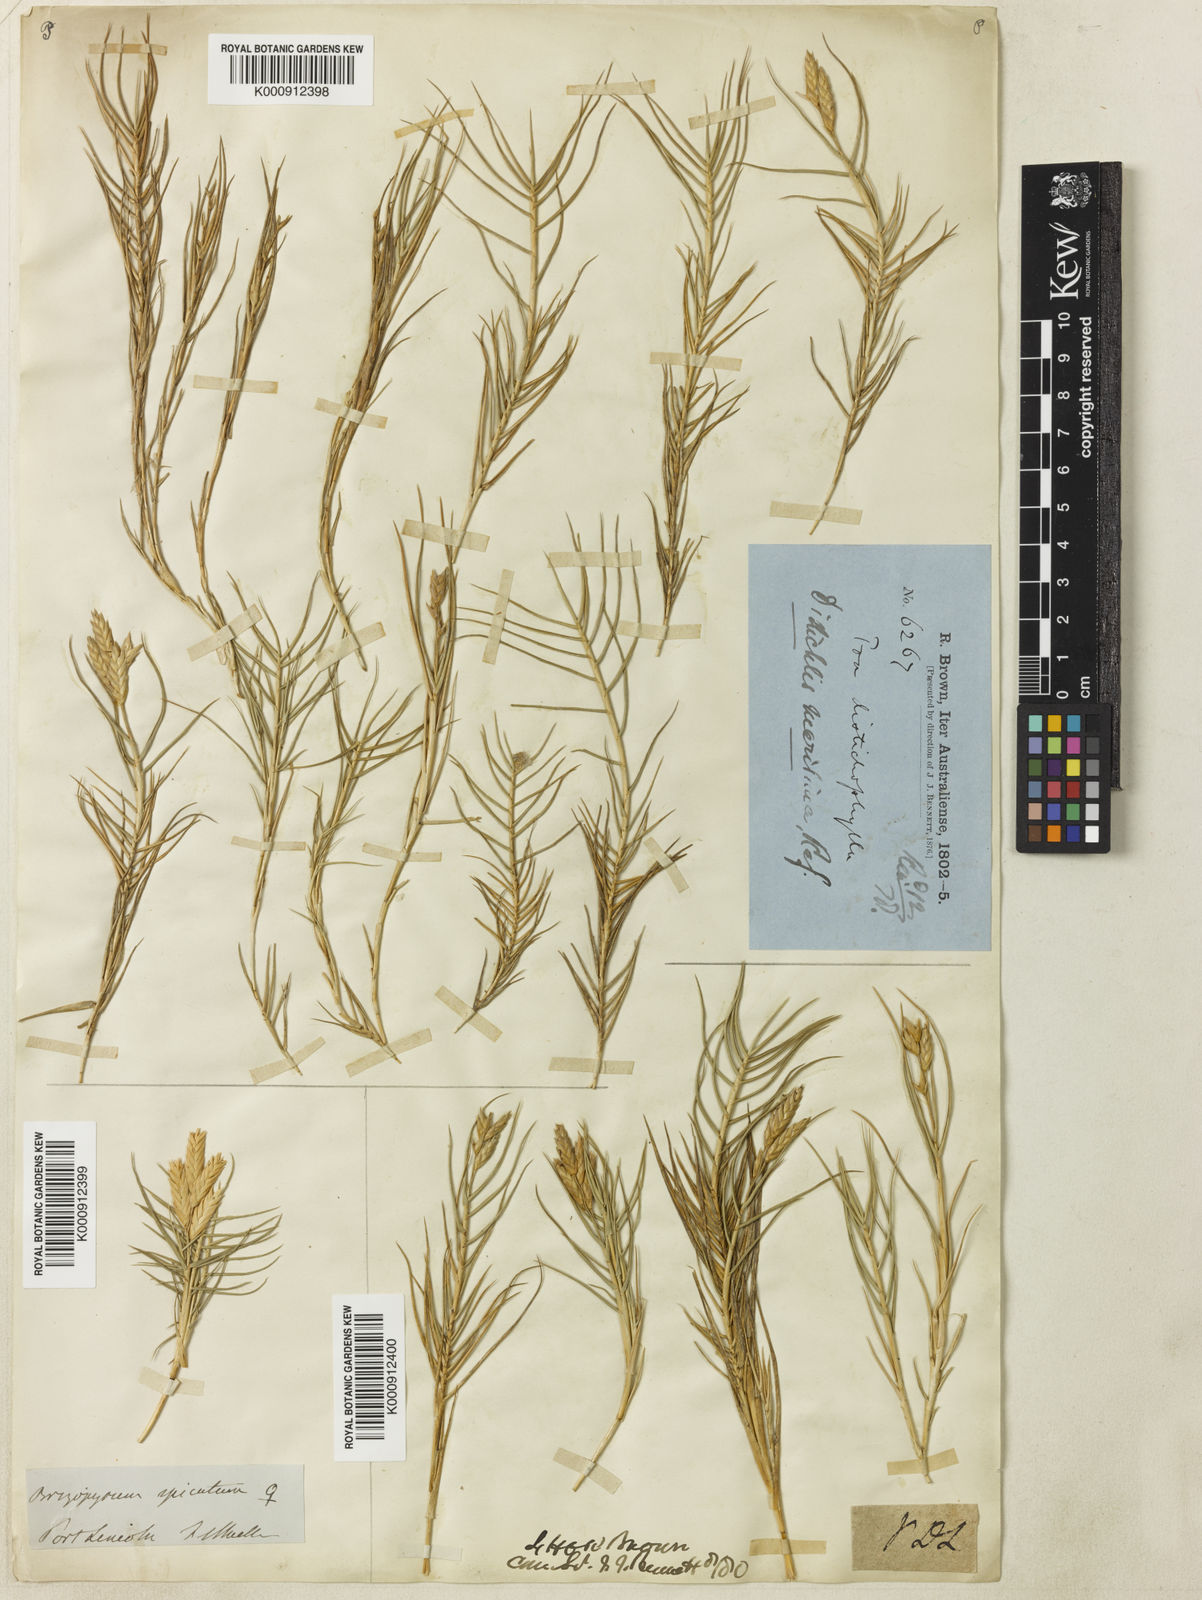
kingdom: Plantae
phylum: Tracheophyta
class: Liliopsida
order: Poales
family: Poaceae
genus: Distichlis
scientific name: Distichlis distichophylla
